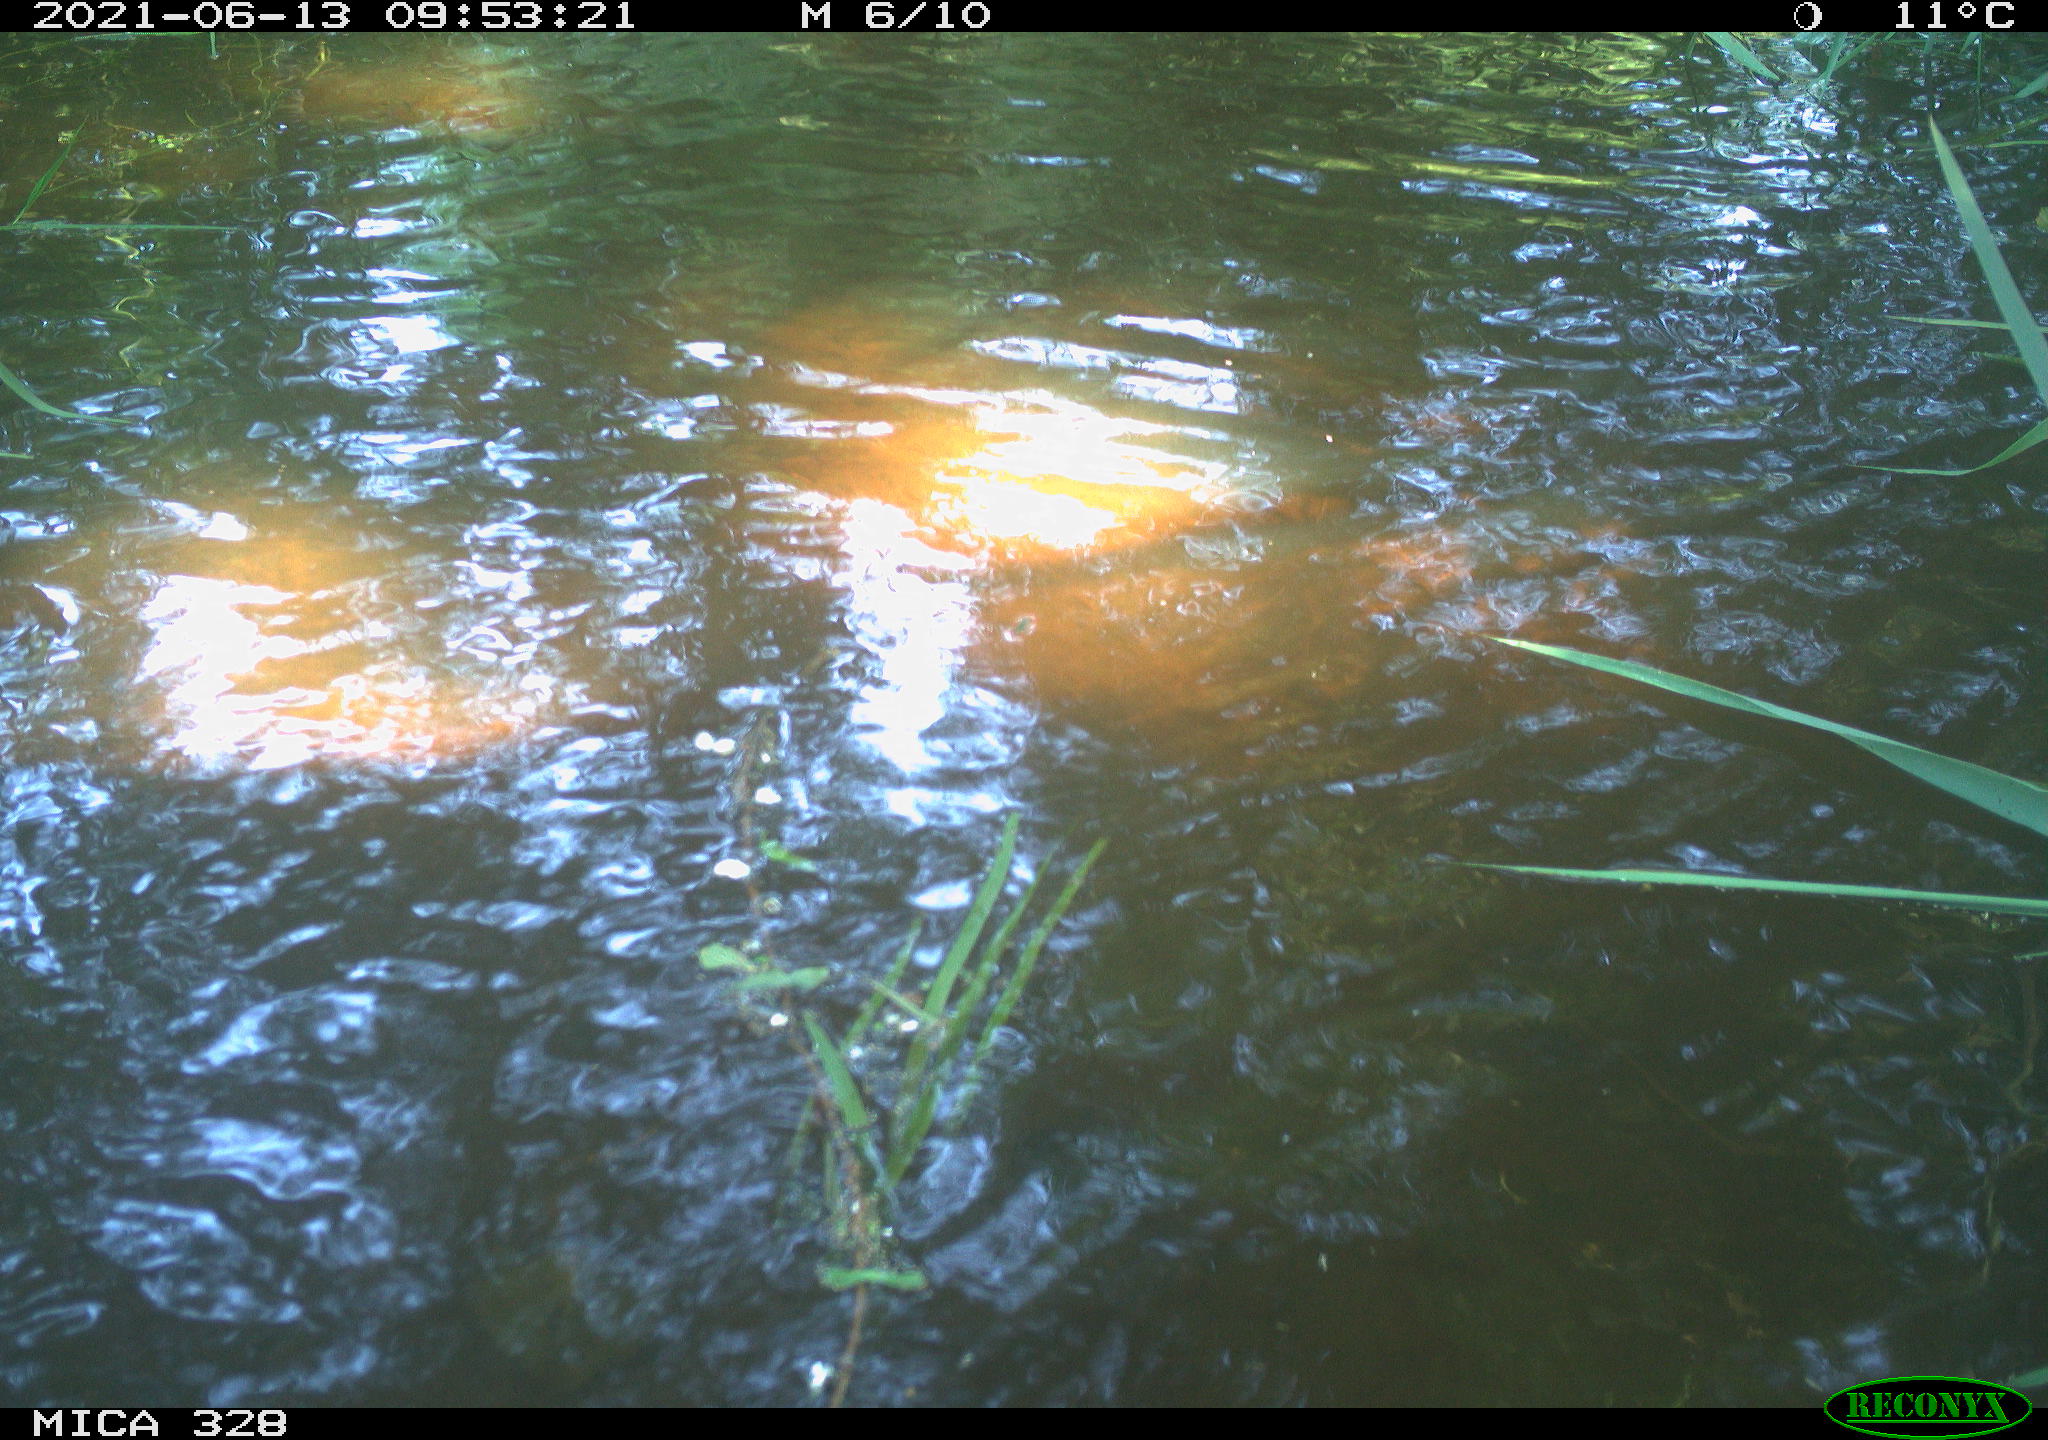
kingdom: Animalia
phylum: Chordata
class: Aves
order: Anseriformes
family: Anatidae
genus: Aix
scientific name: Aix galericulata
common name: Mandarin duck
